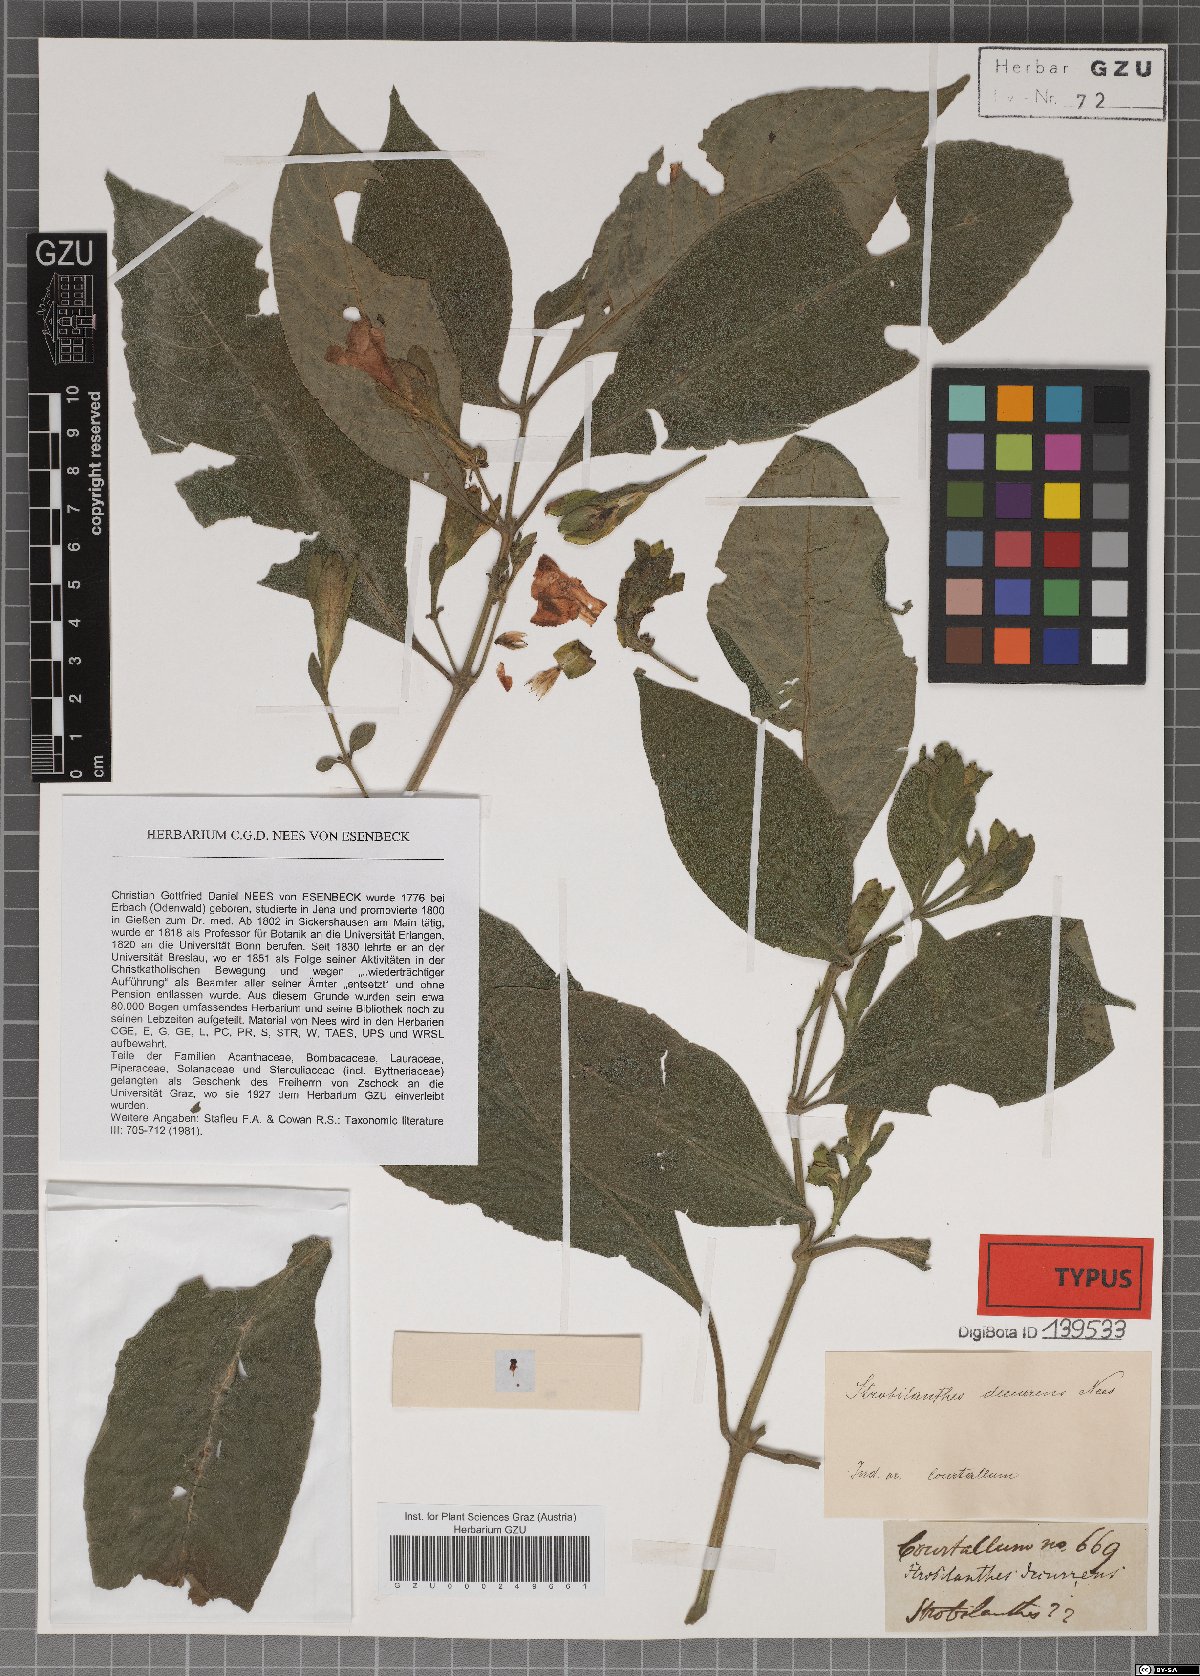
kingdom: Plantae
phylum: Tracheophyta
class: Magnoliopsida
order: Lamiales
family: Acanthaceae
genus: Strobilanthes
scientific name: Strobilanthes decurrens
